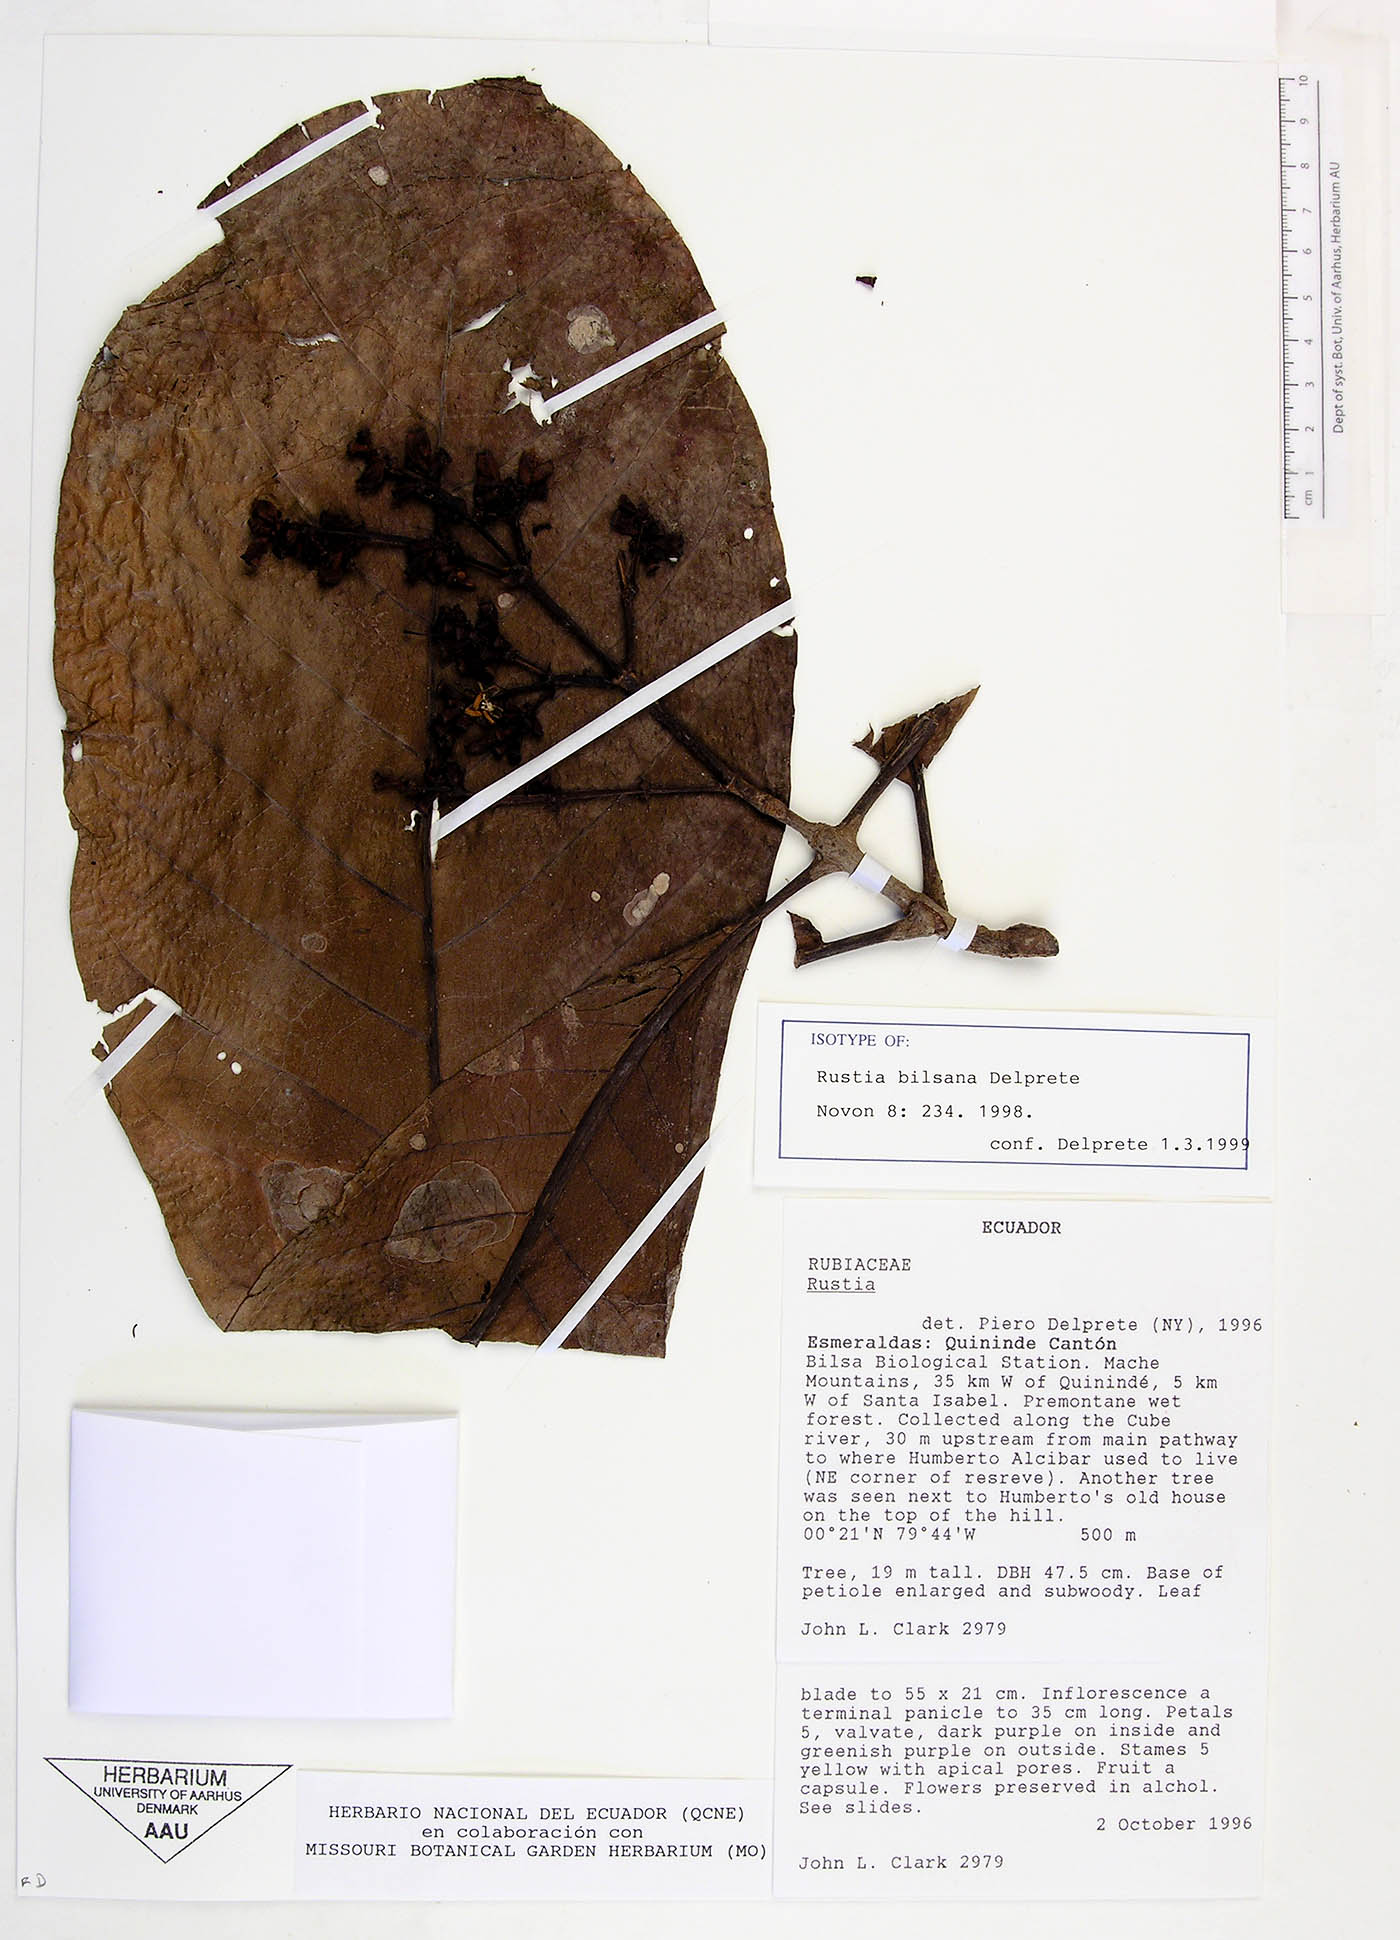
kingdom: Plantae
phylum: Tracheophyta
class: Magnoliopsida
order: Gentianales
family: Rubiaceae
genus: Rustia
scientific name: Rustia bilsana
